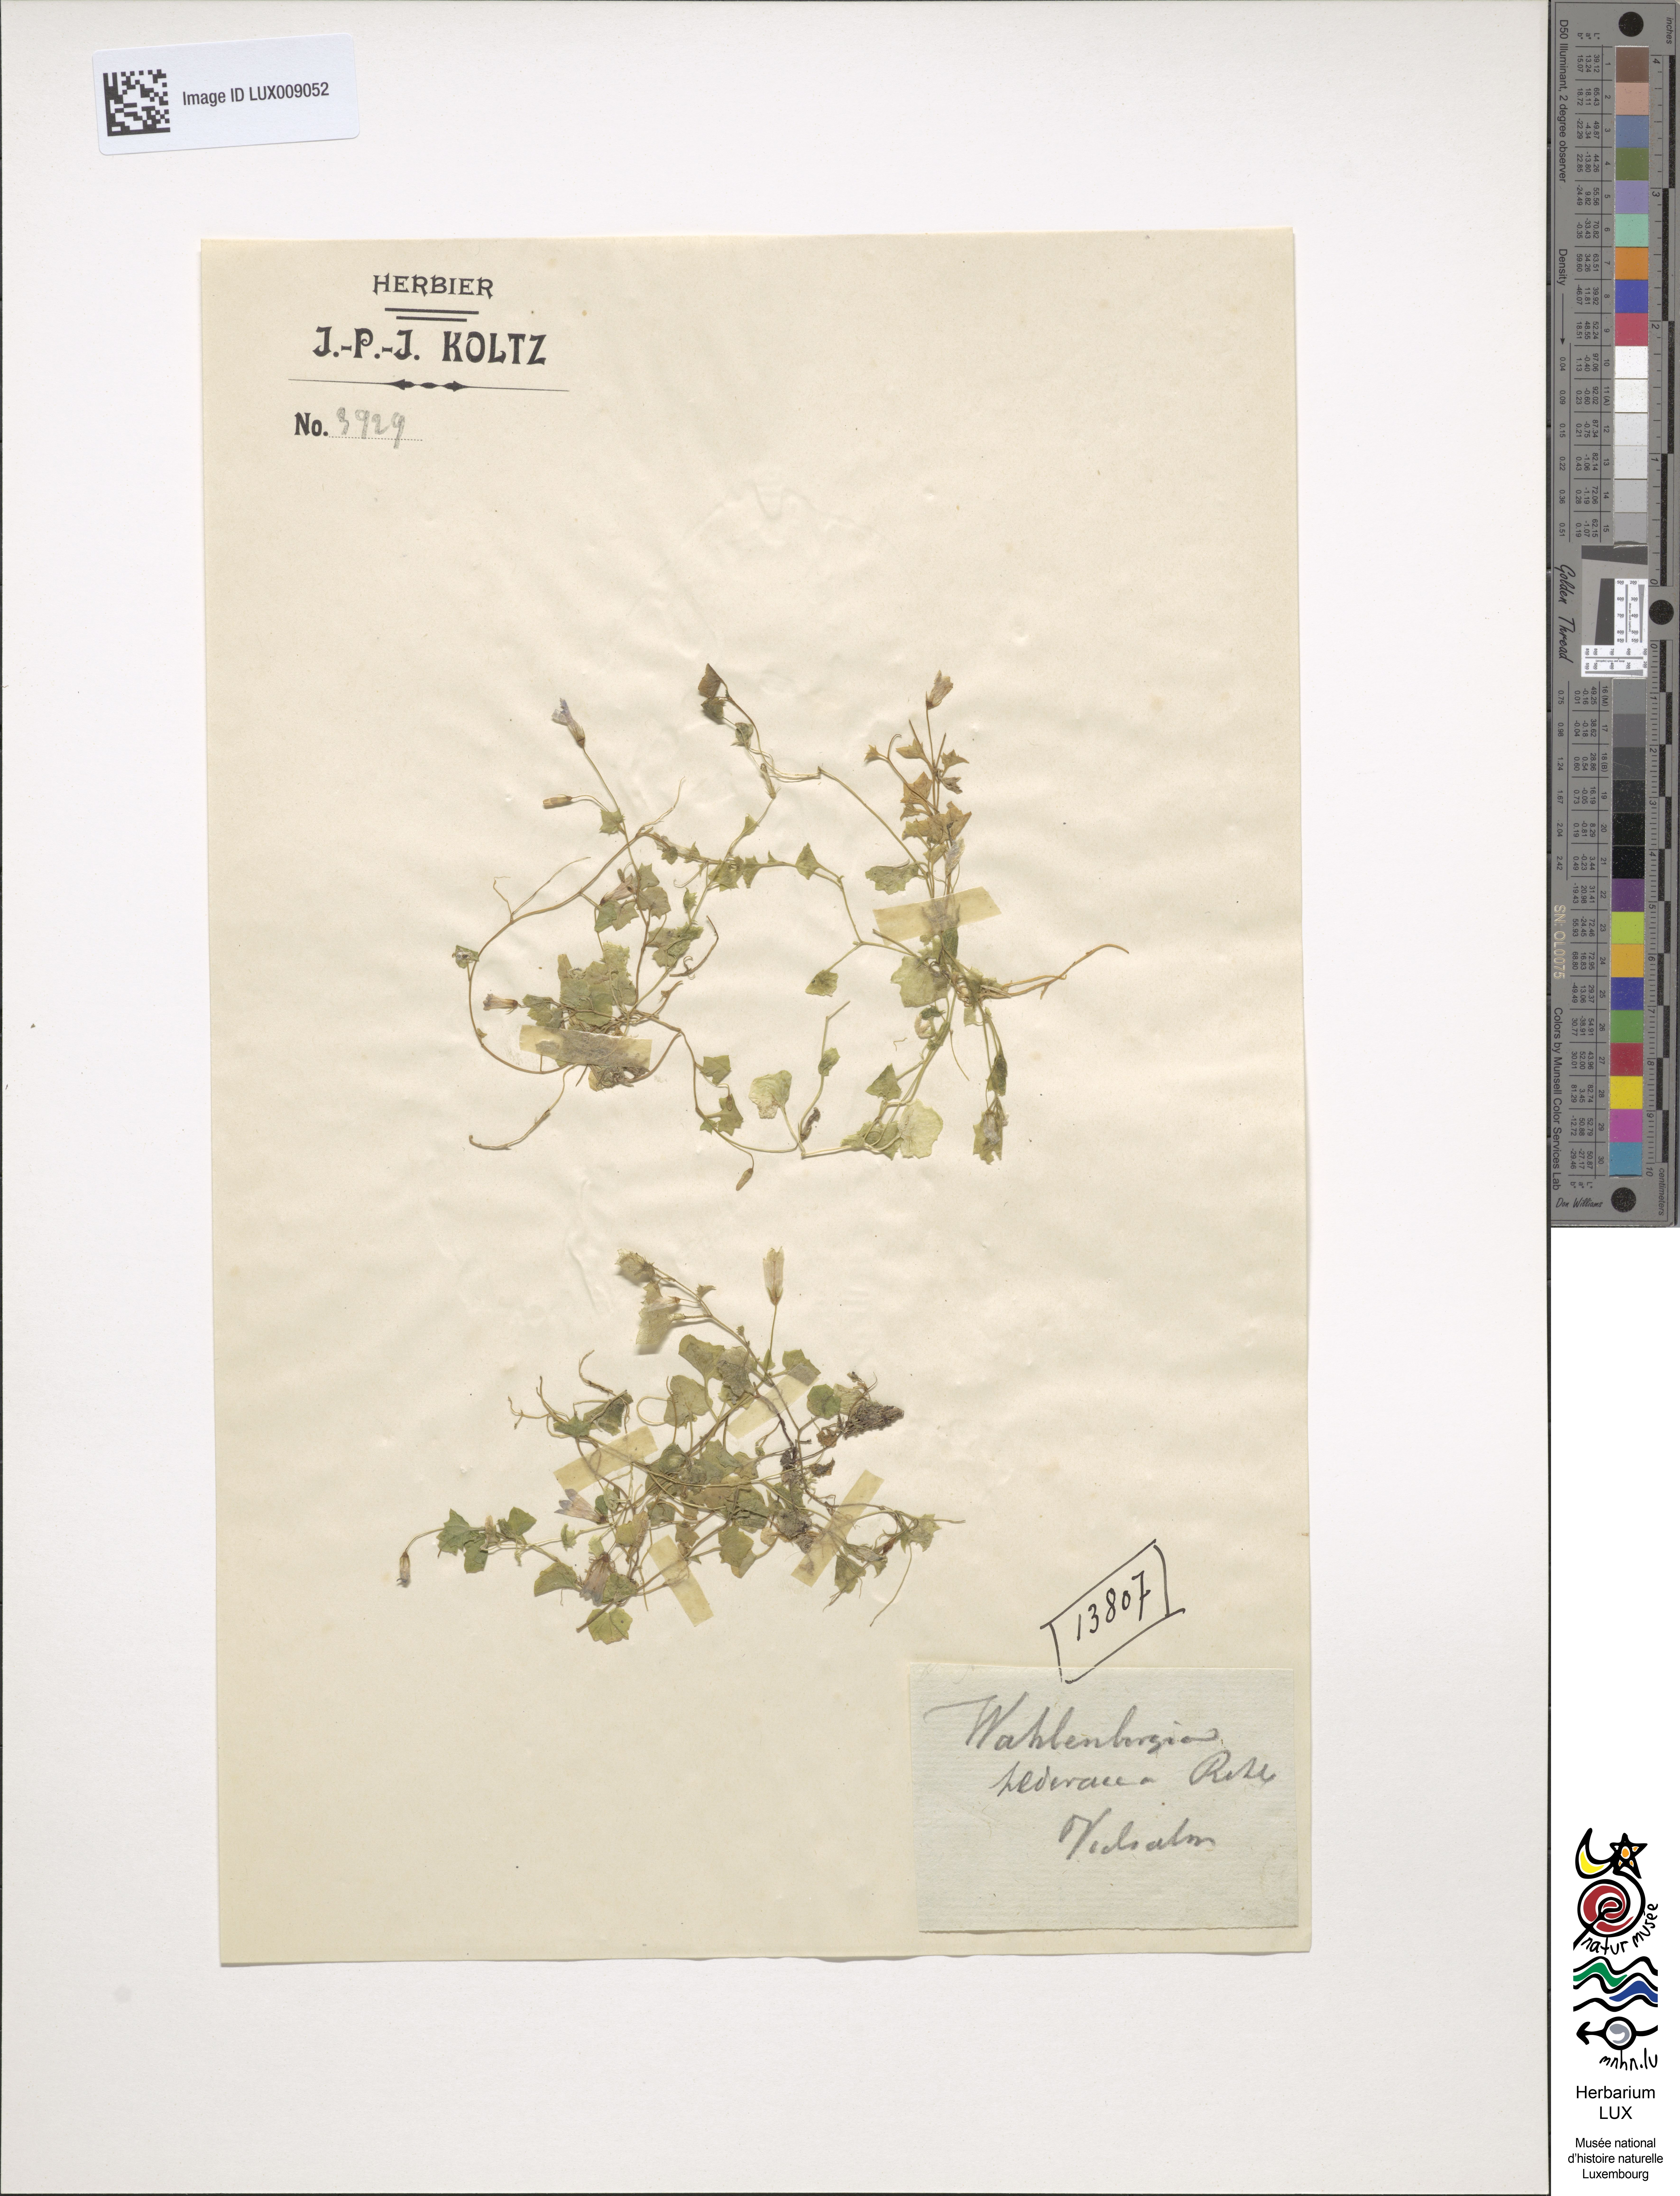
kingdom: Plantae
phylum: Tracheophyta
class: Magnoliopsida
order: Asterales
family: Campanulaceae
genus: Hesperocodon
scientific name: Hesperocodon hederaceus
